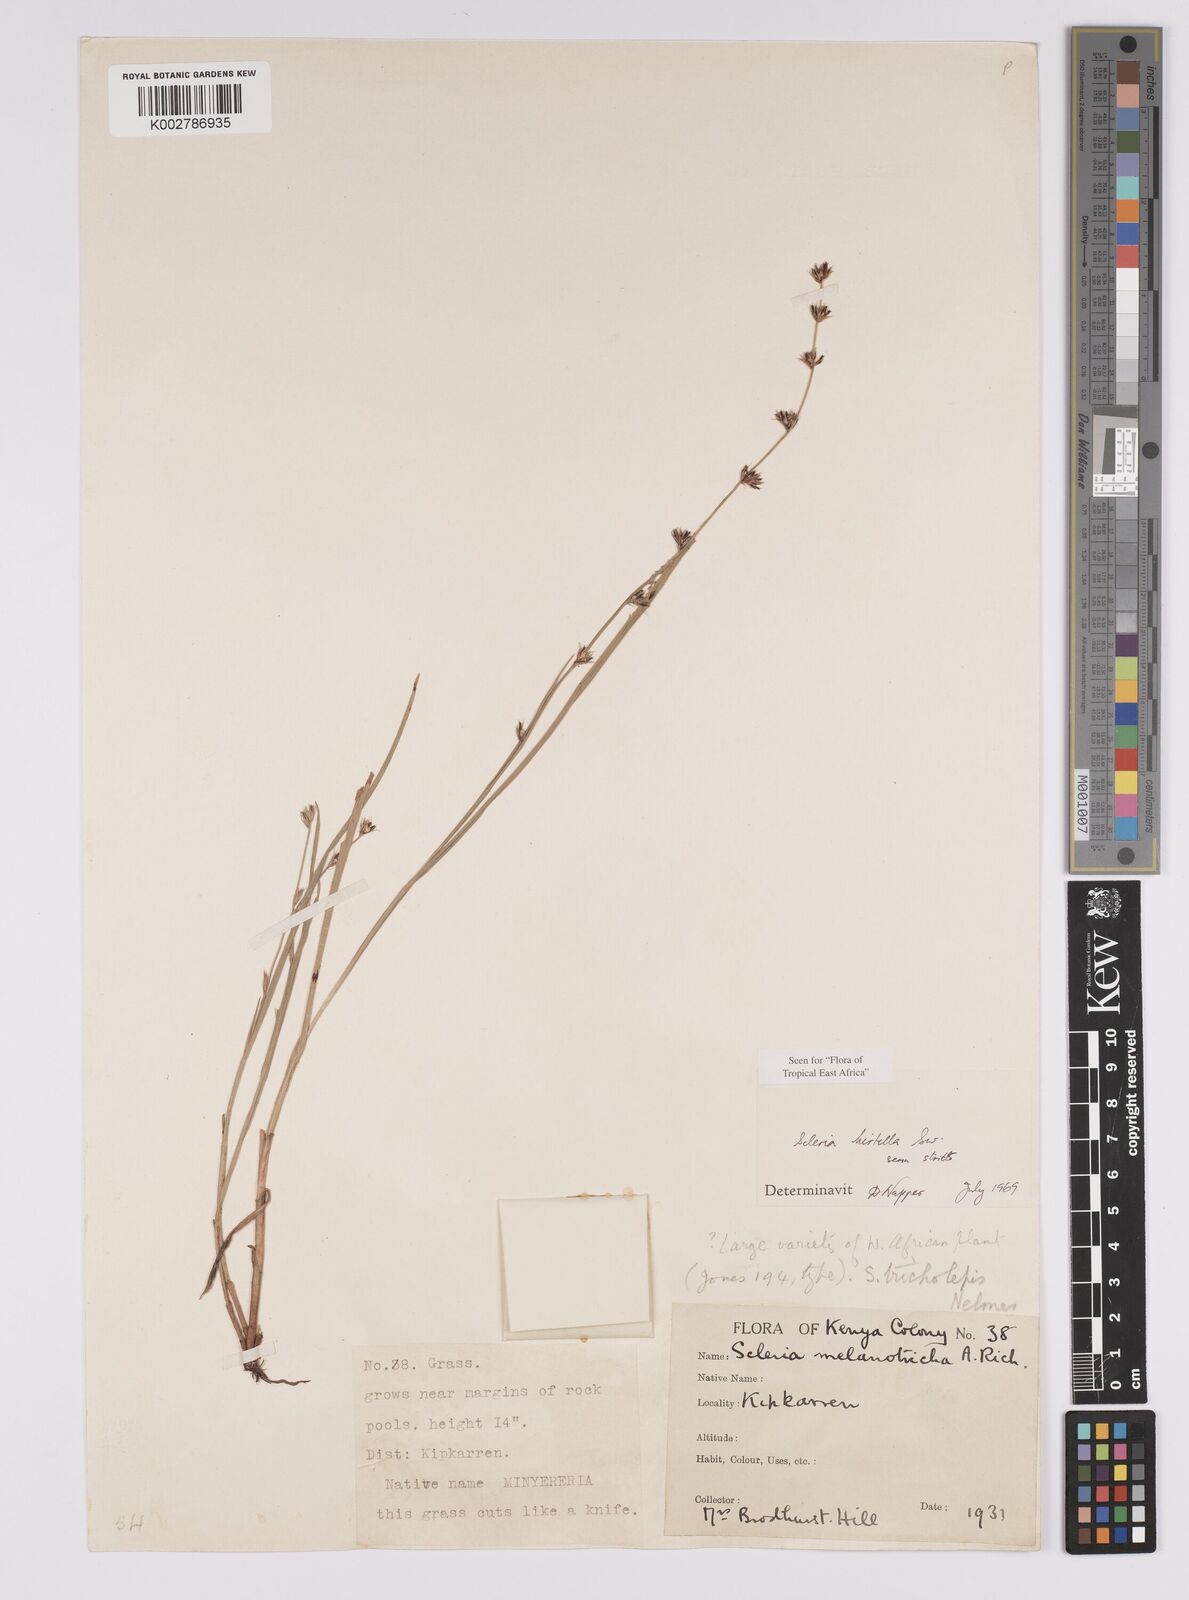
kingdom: Plantae
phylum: Tracheophyta
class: Liliopsida
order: Poales
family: Cyperaceae
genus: Scleria
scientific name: Scleria hirtella
